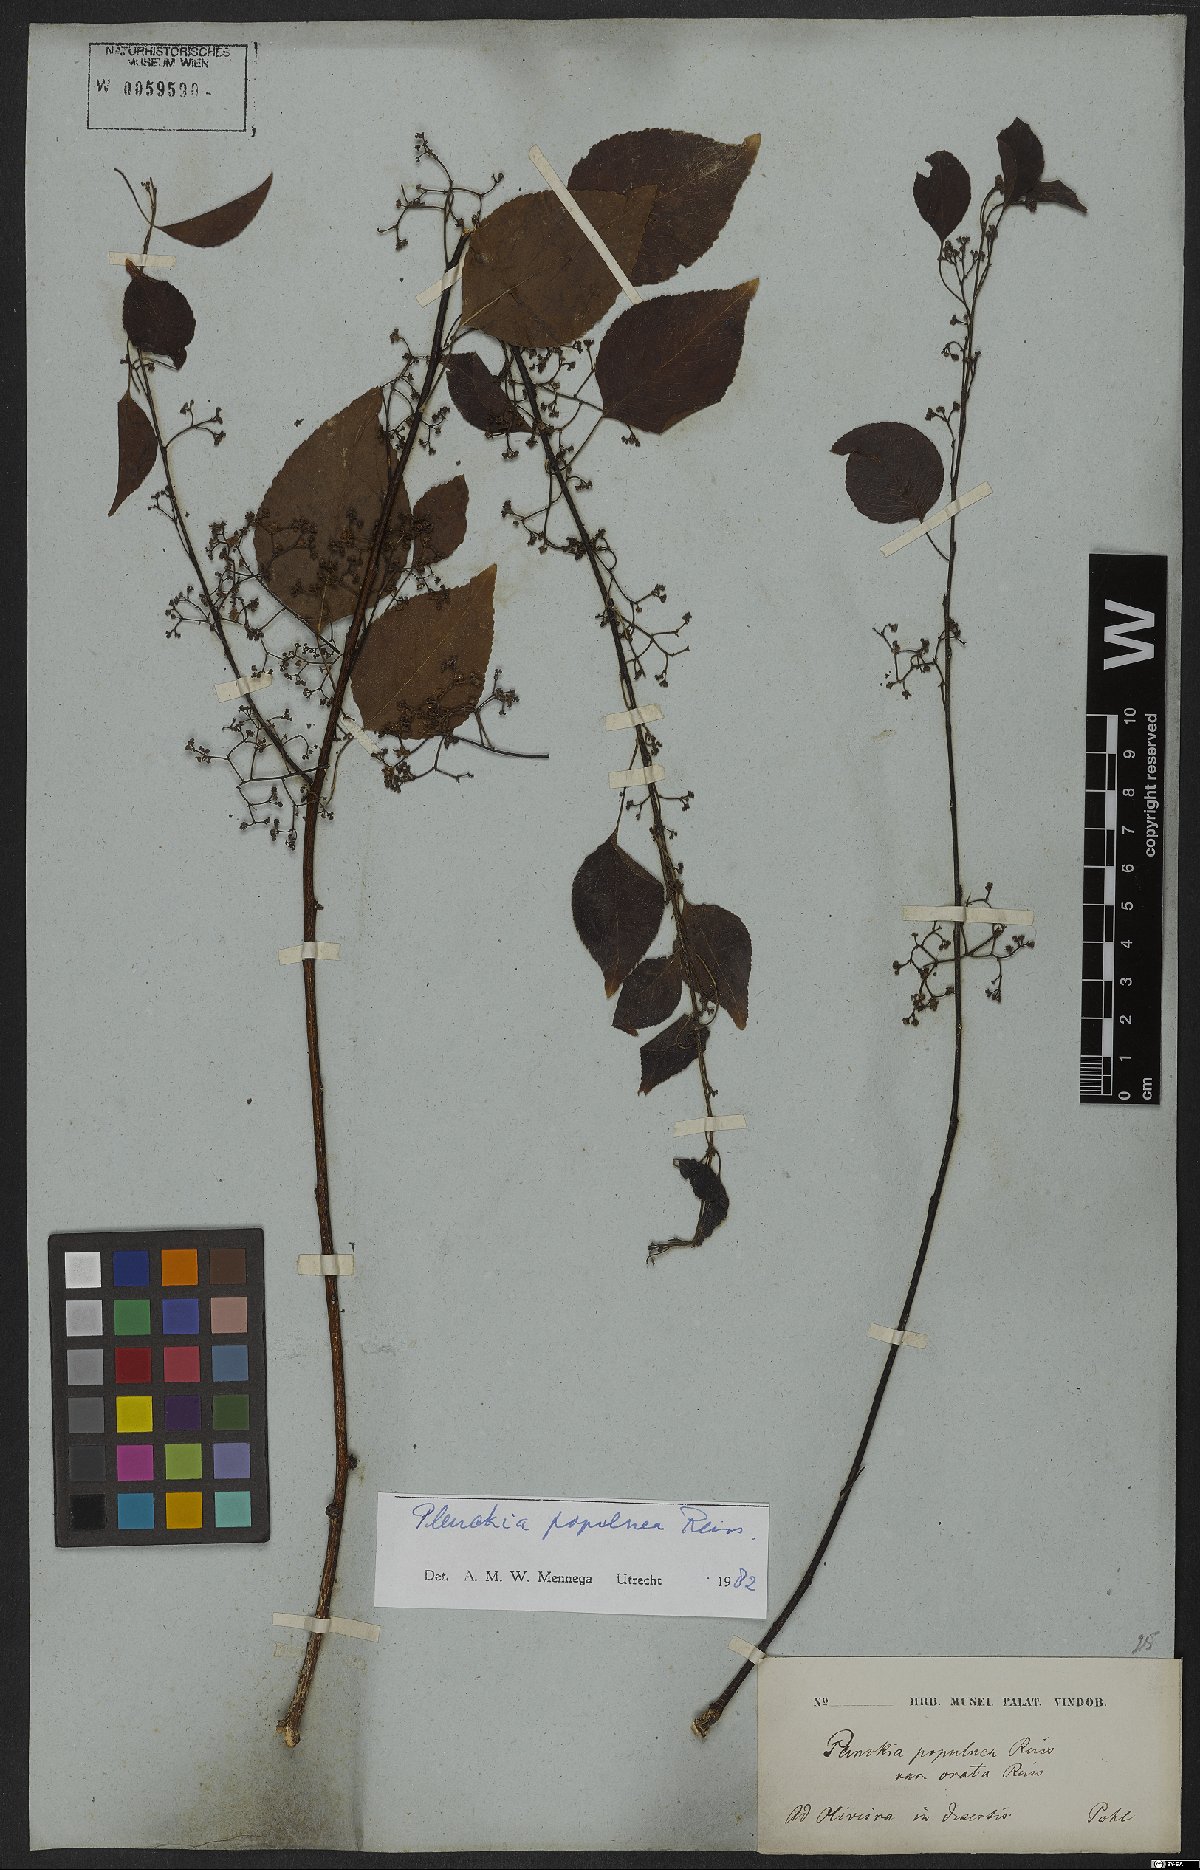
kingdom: Plantae
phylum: Tracheophyta
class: Magnoliopsida
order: Celastrales
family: Celastraceae
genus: Plenckia
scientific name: Plenckia populnea
